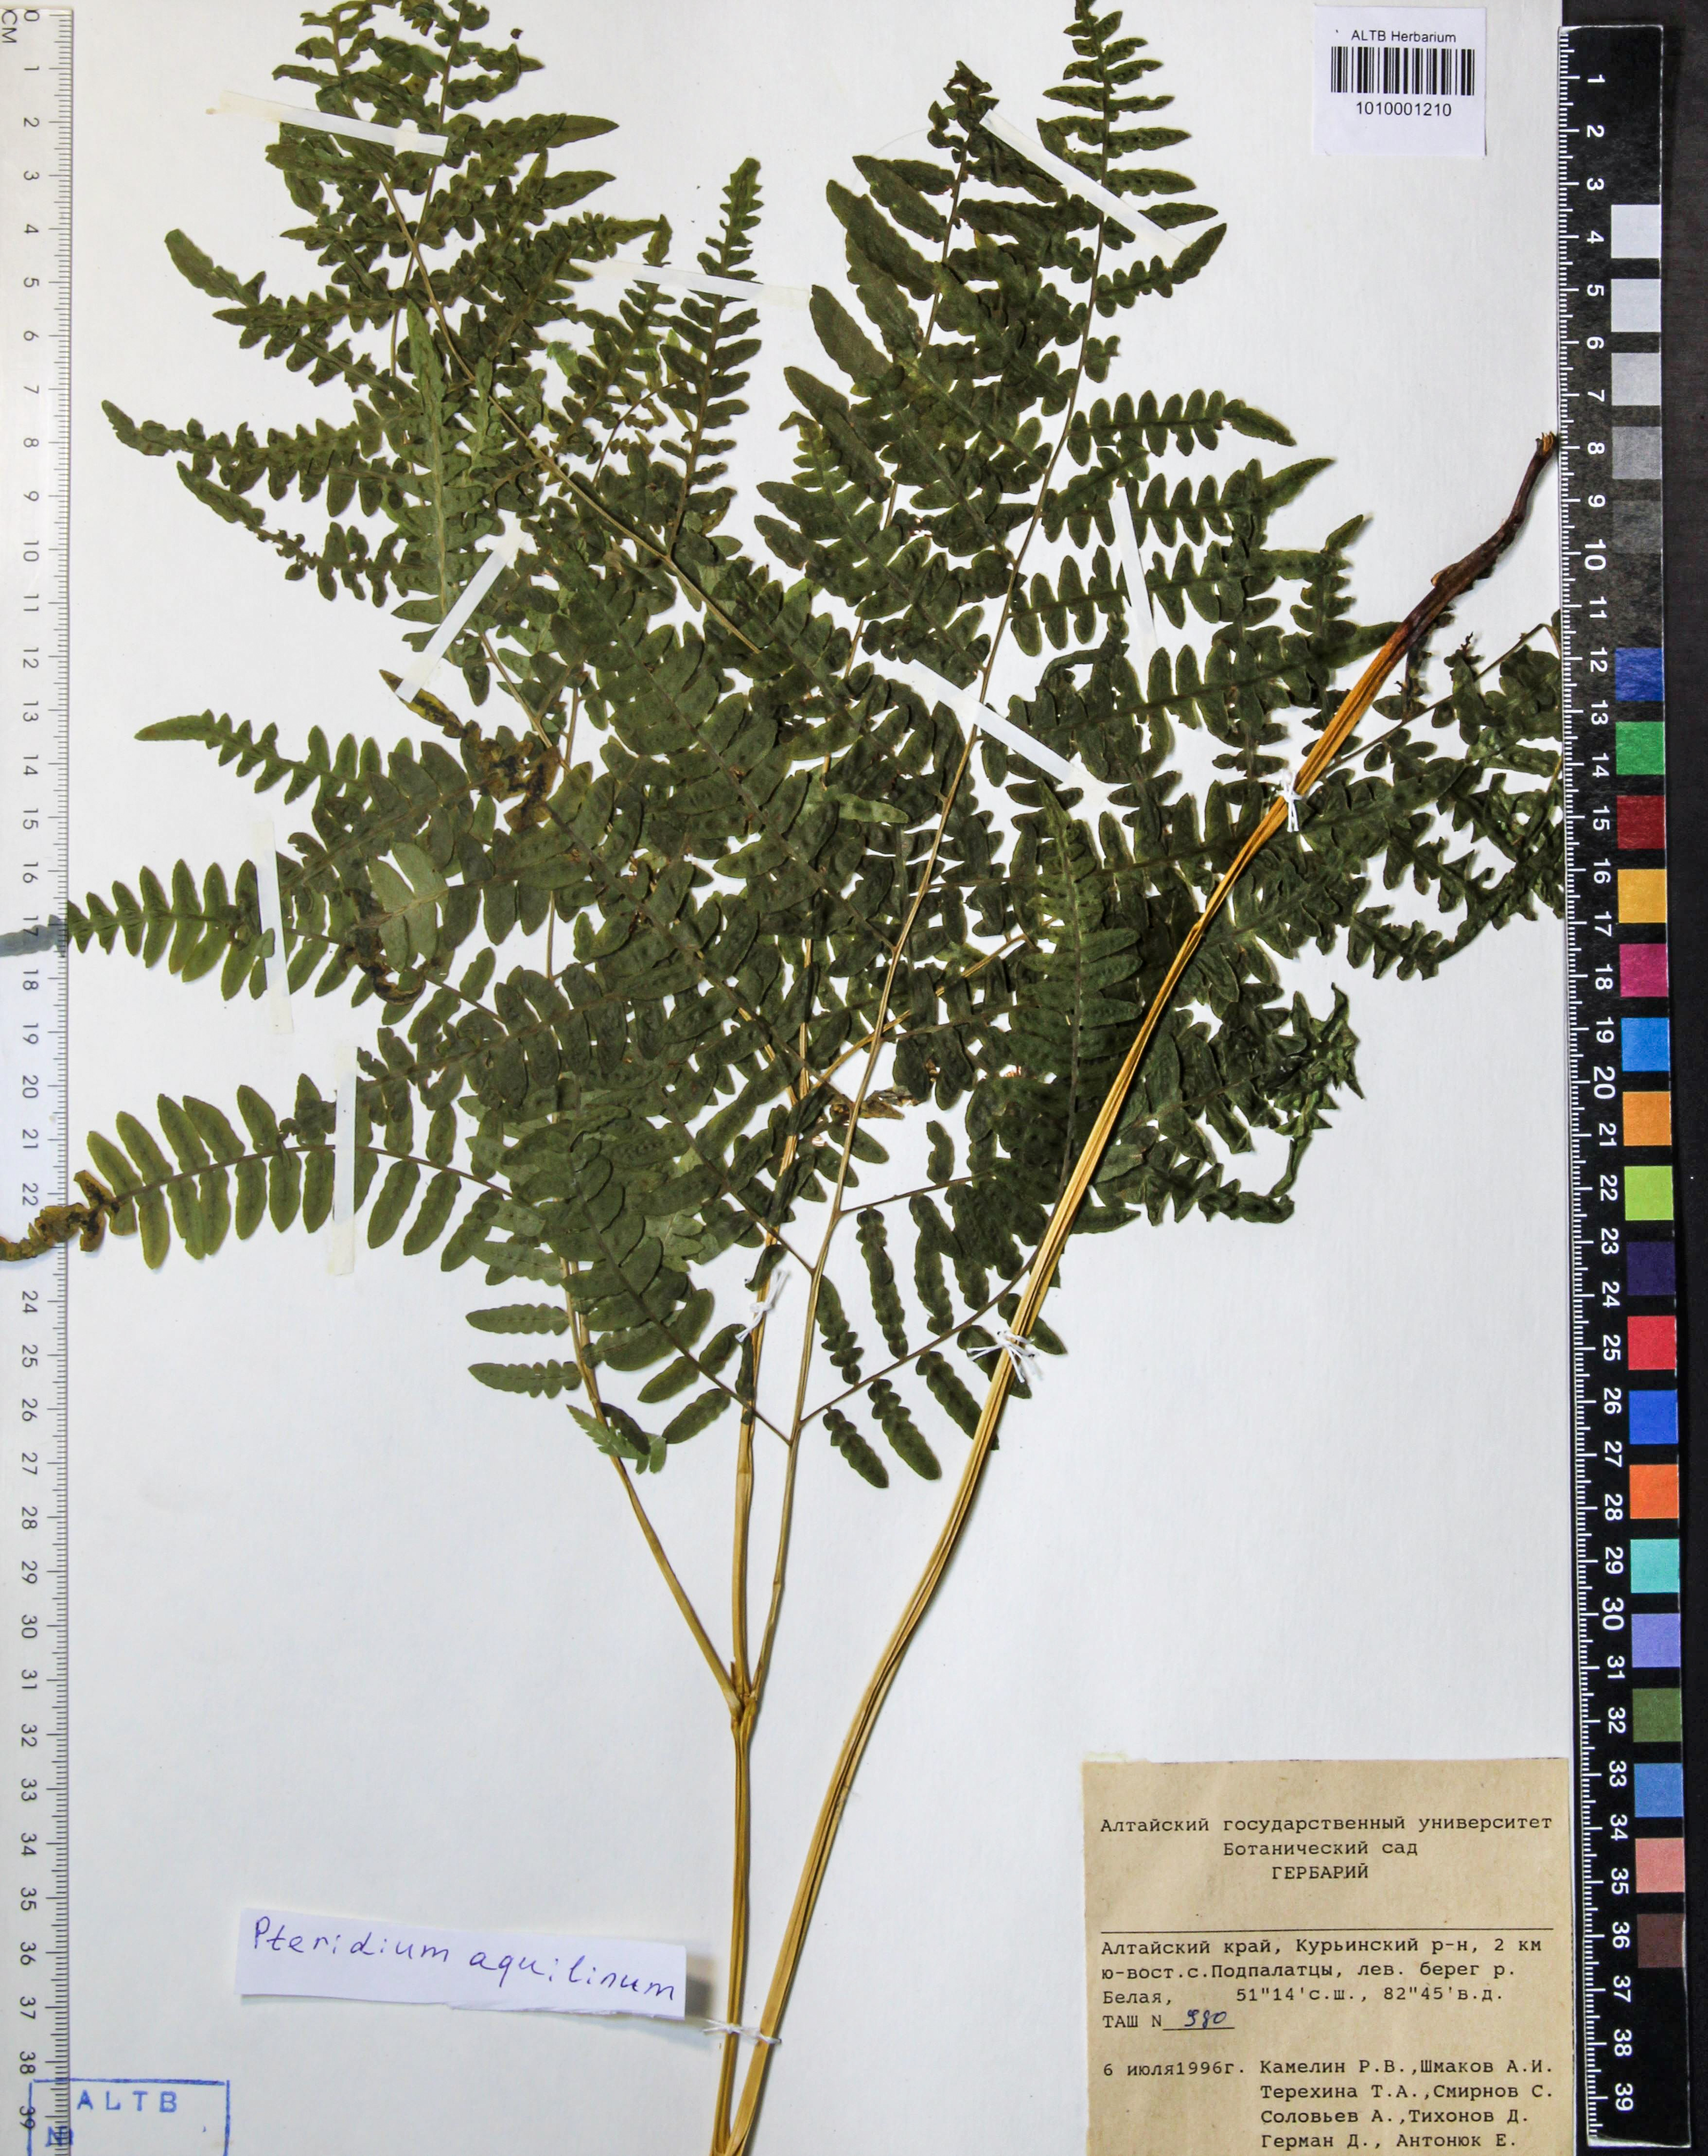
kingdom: Plantae
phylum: Tracheophyta
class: Polypodiopsida
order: Polypodiales
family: Dennstaedtiaceae
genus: Pteridium
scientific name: Pteridium aquilinum
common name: Bracken
